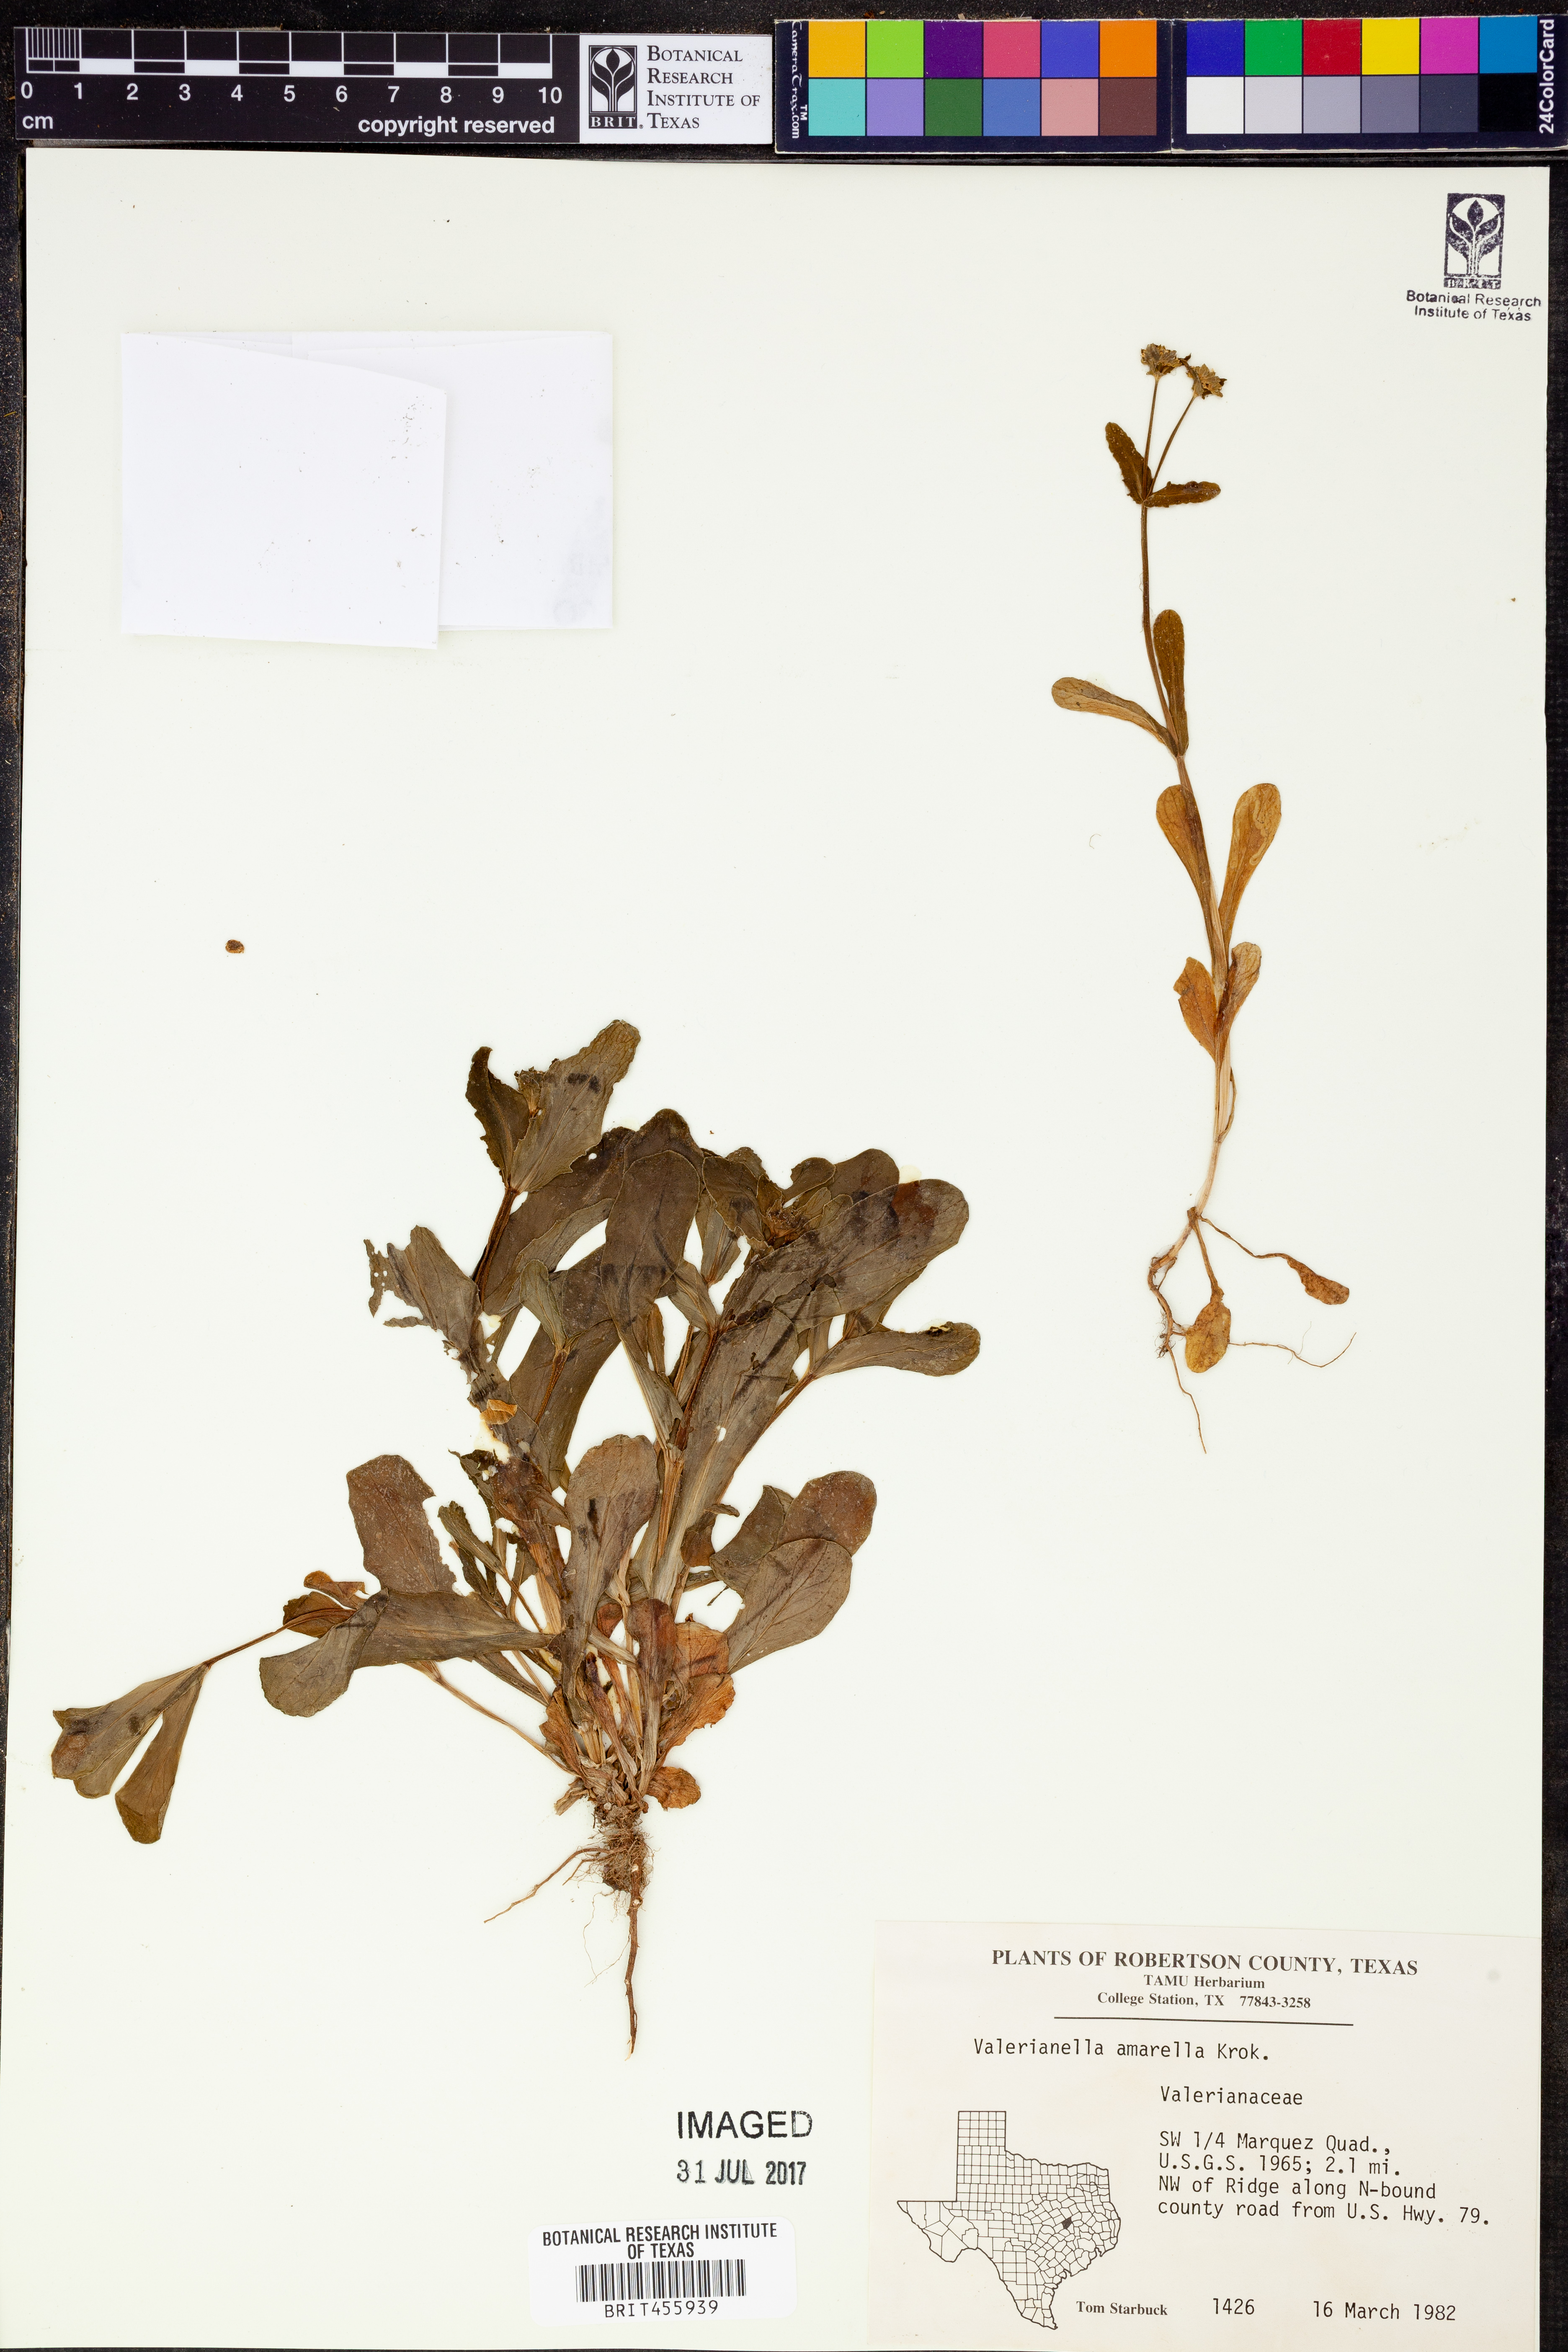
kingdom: Plantae
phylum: Tracheophyta
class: Magnoliopsida
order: Dipsacales
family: Caprifoliaceae
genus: Valerianella
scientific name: Valerianella amarella
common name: Hariy cornsalad
